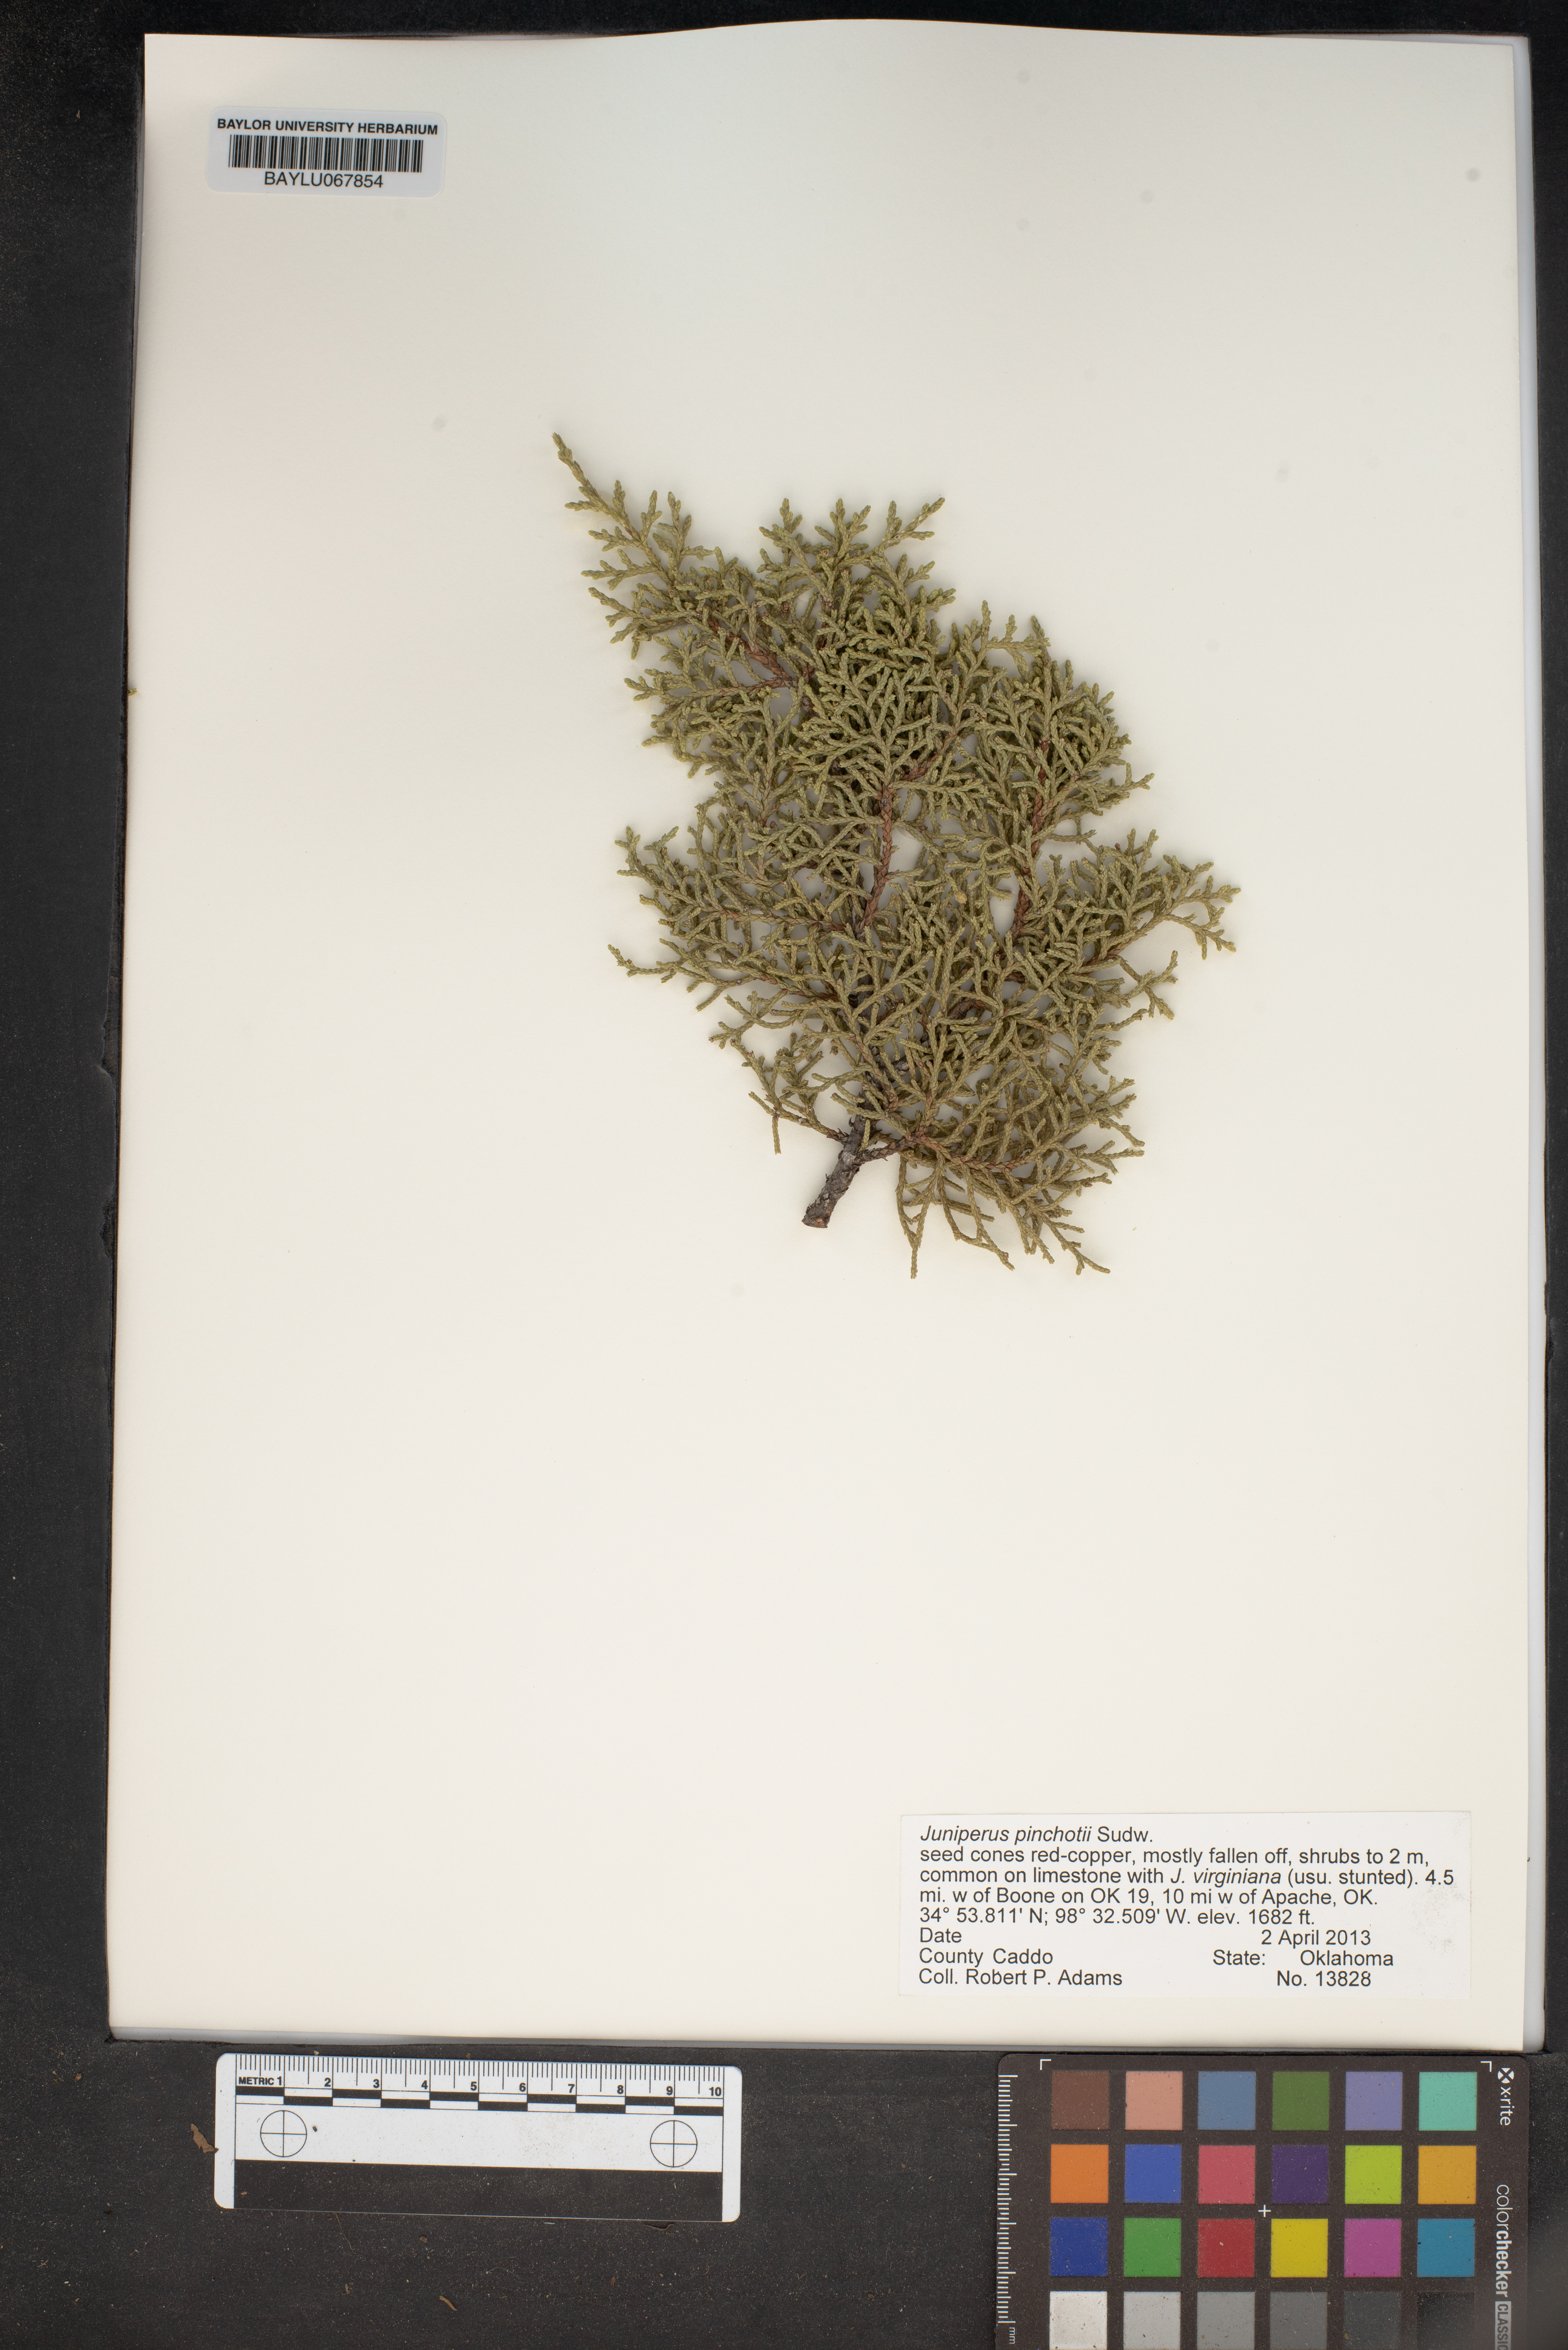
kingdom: Plantae
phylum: Tracheophyta
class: Pinopsida
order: Pinales
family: Cupressaceae
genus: Juniperus
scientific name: Juniperus pinchotii
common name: Pinchot juniper
